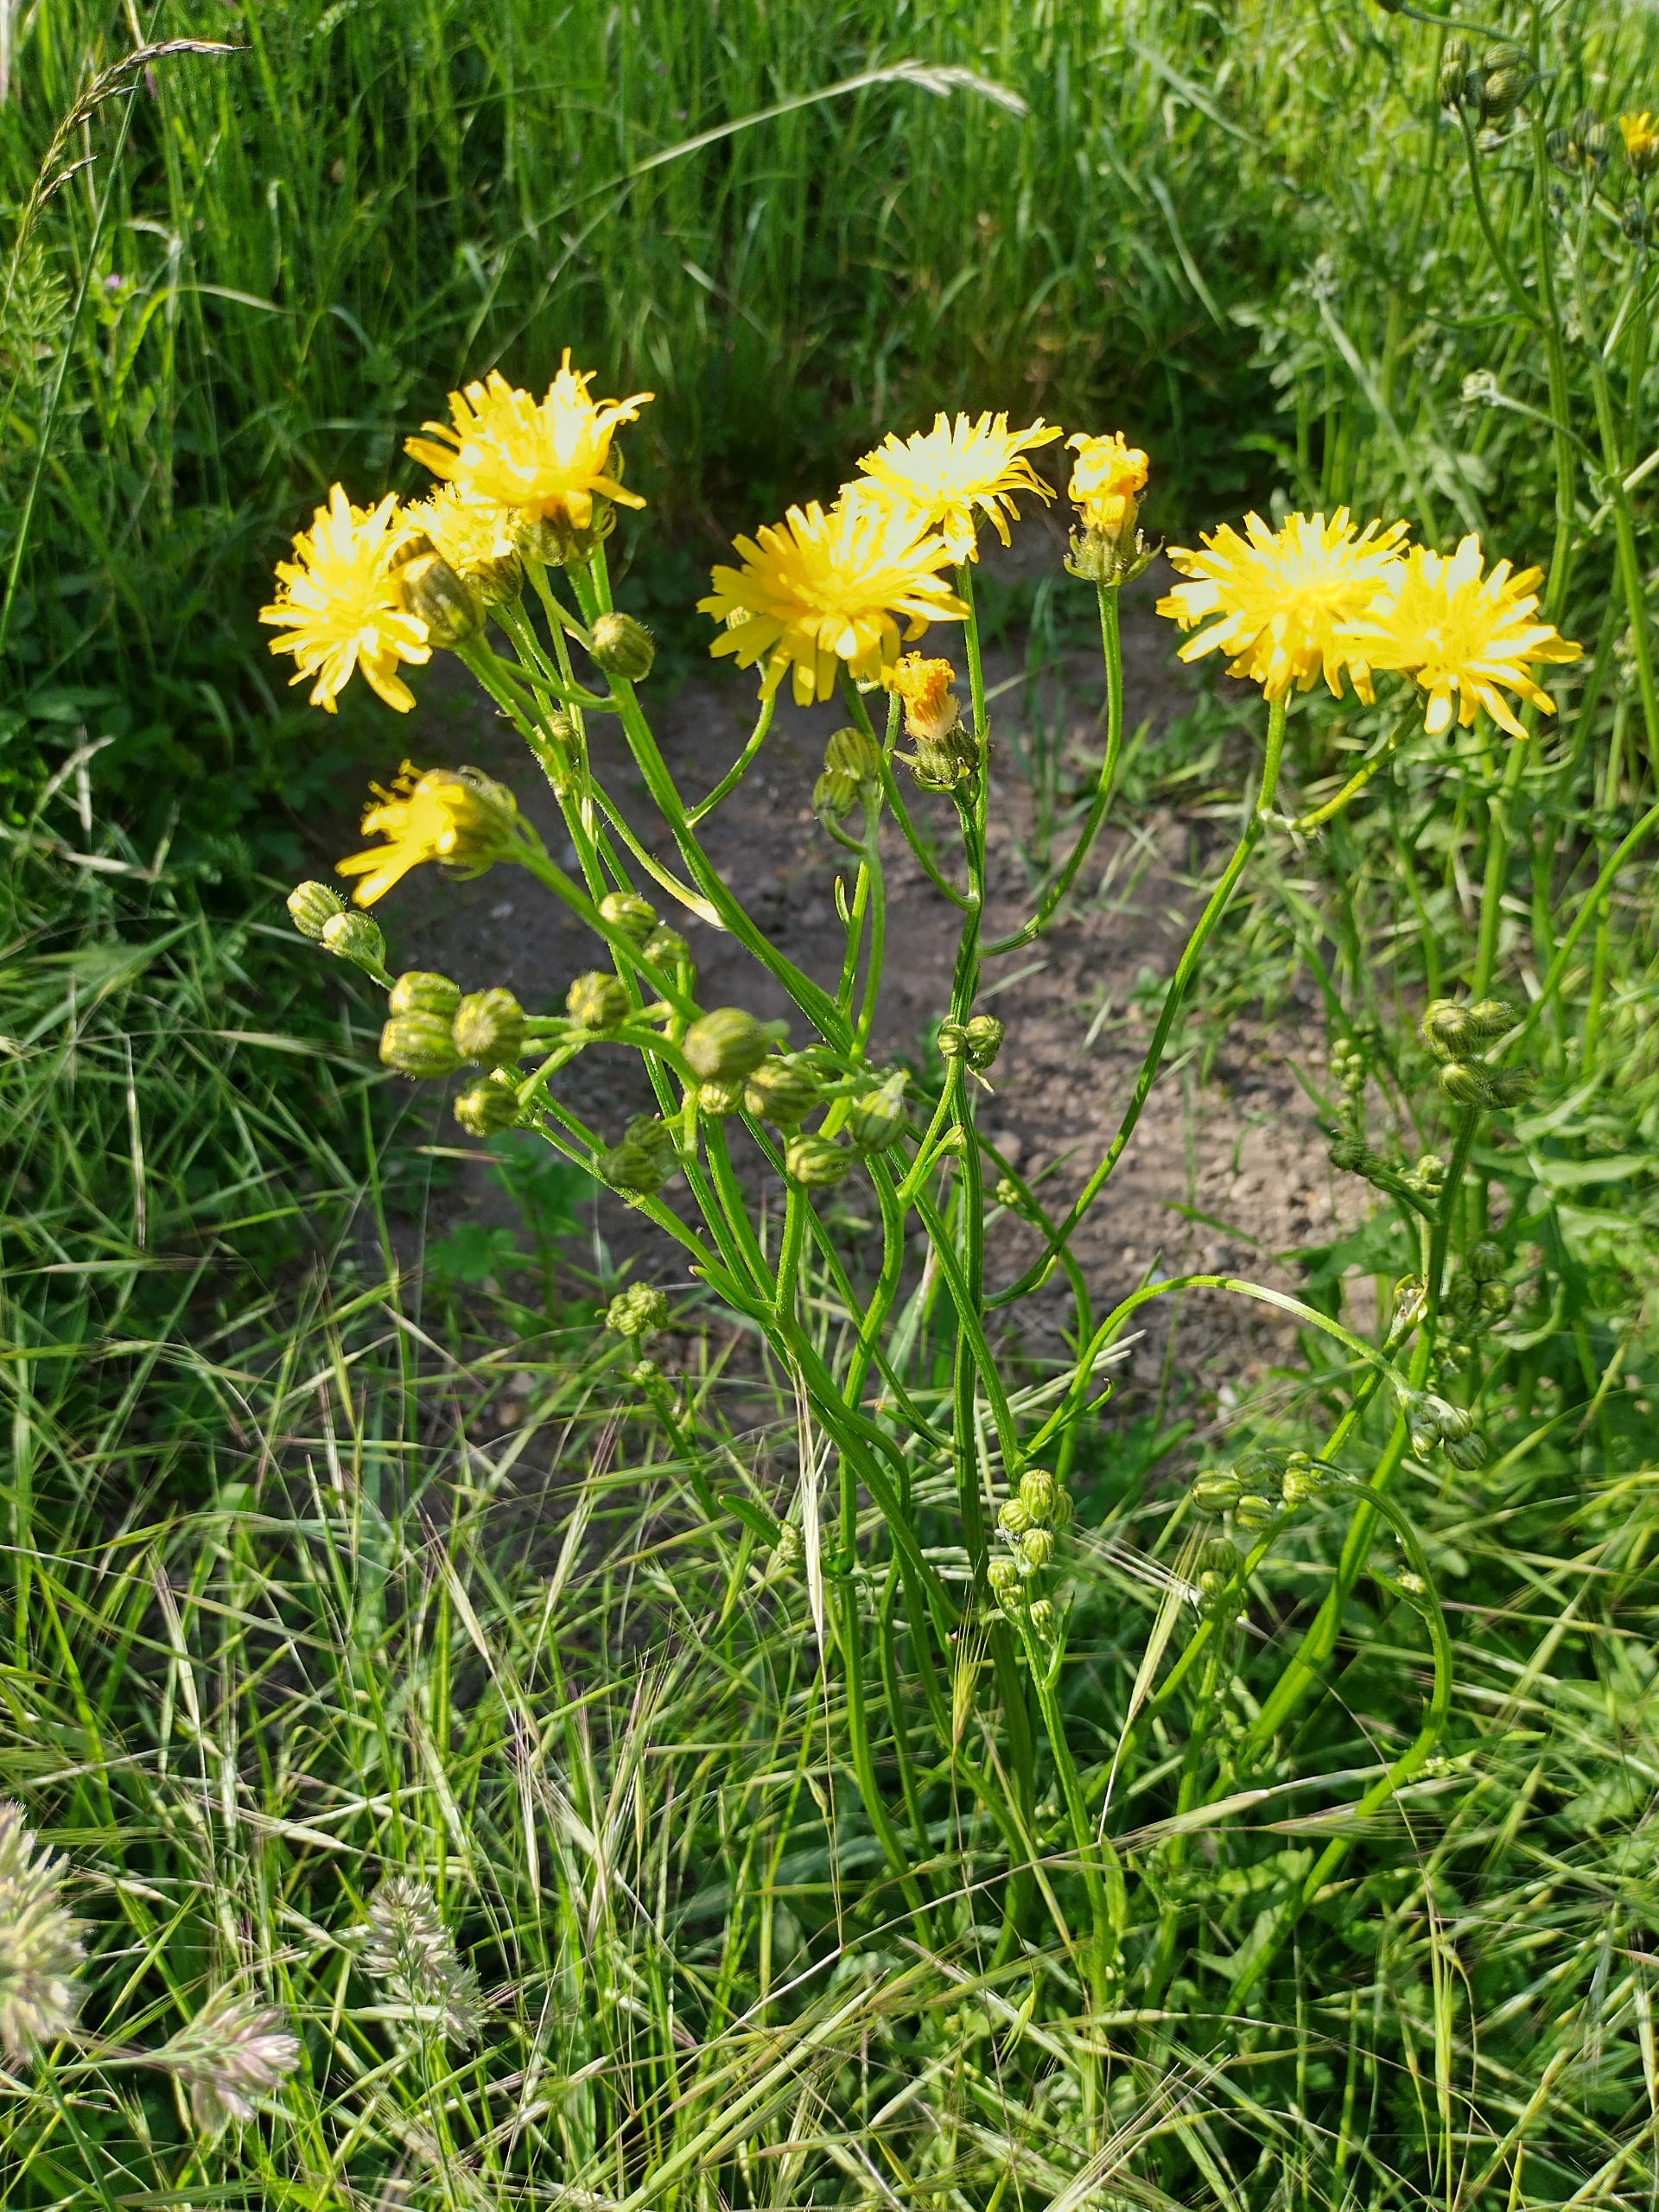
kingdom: Plantae
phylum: Tracheophyta
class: Magnoliopsida
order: Asterales
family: Asteraceae
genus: Crepis
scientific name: Crepis biennis
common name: Toårig høgeskæg
